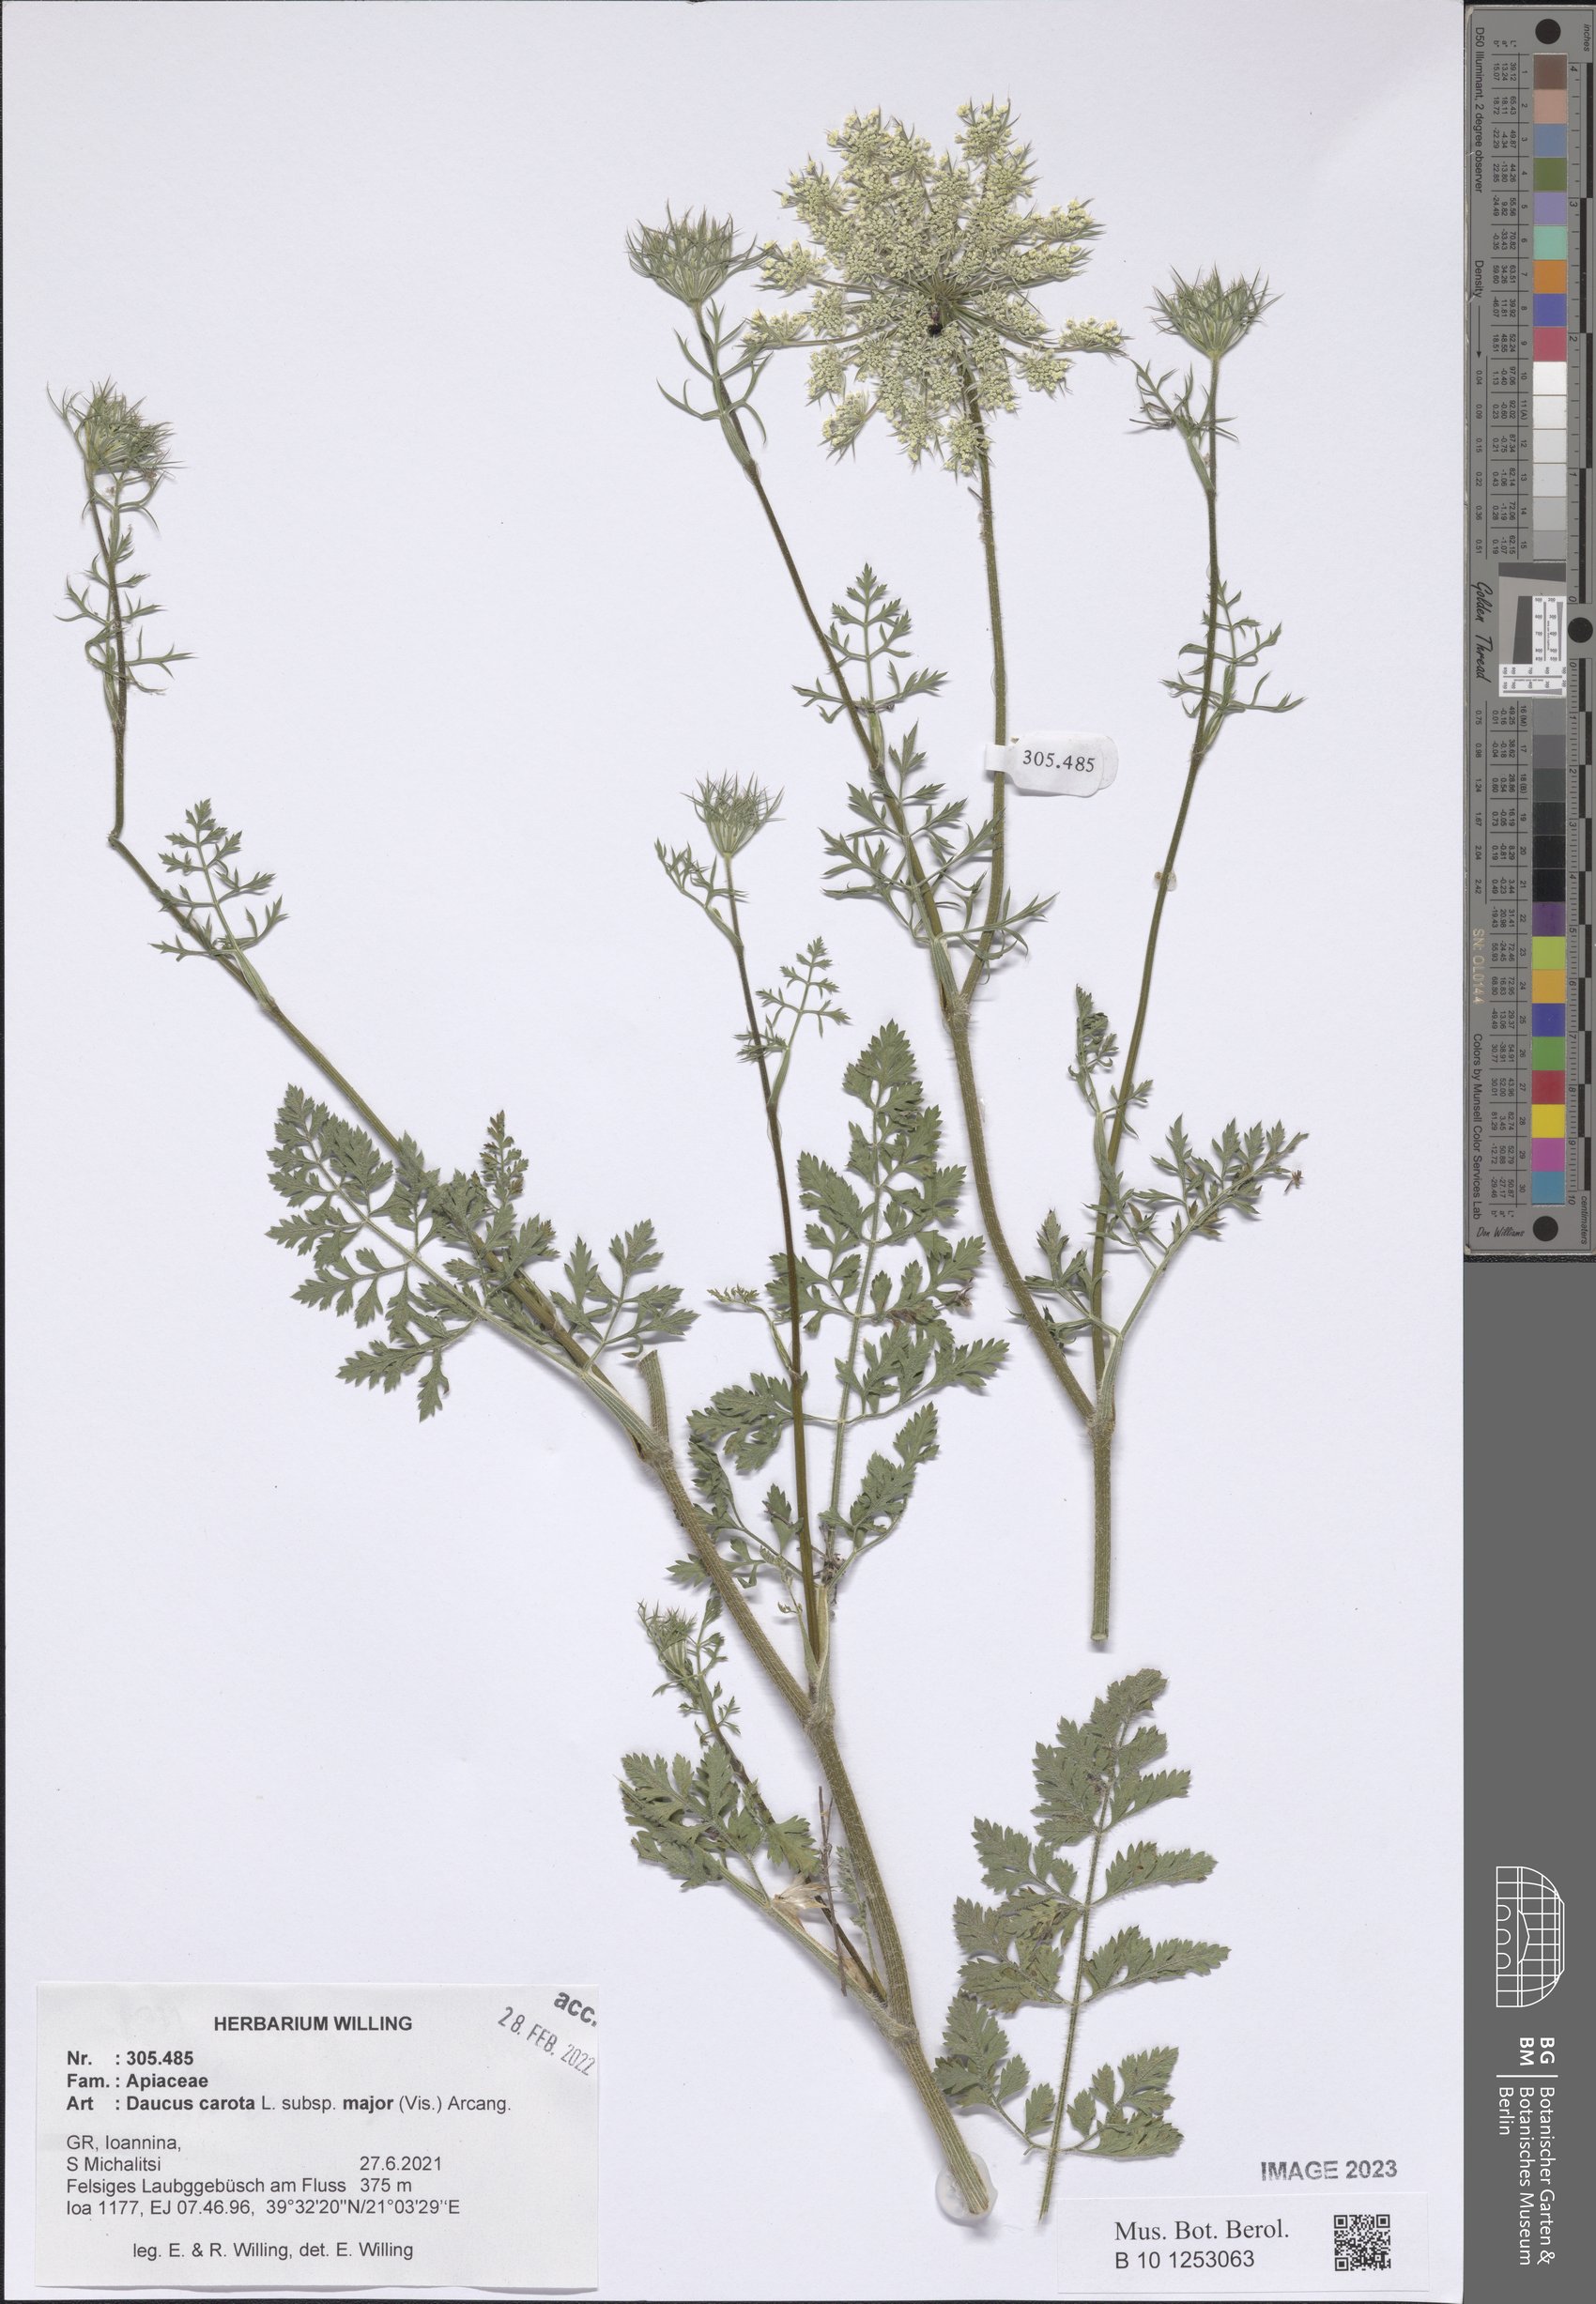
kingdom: Plantae
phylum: Tracheophyta
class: Magnoliopsida
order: Apiales
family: Apiaceae
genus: Daucus
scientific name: Daucus carota
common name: Wild carrot
